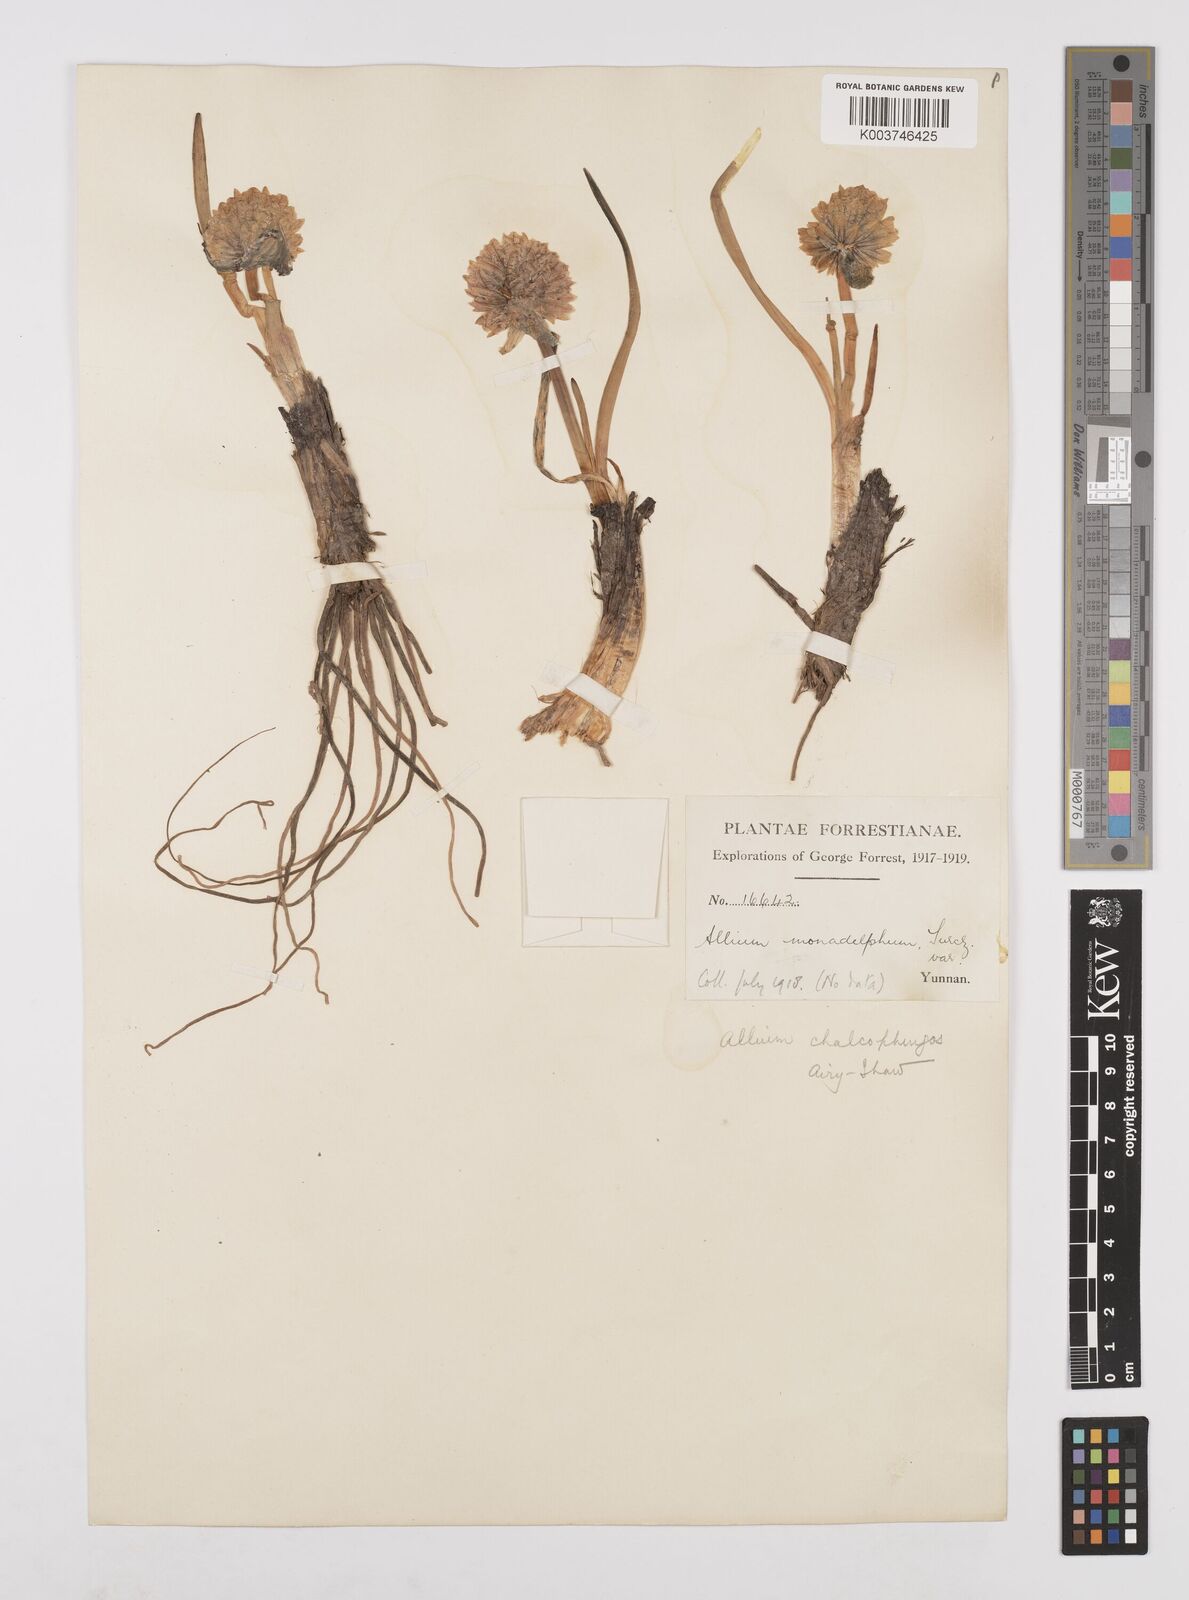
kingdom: Plantae
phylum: Tracheophyta
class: Liliopsida
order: Asparagales
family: Amaryllidaceae
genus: Allium
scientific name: Allium atrosanguineum
